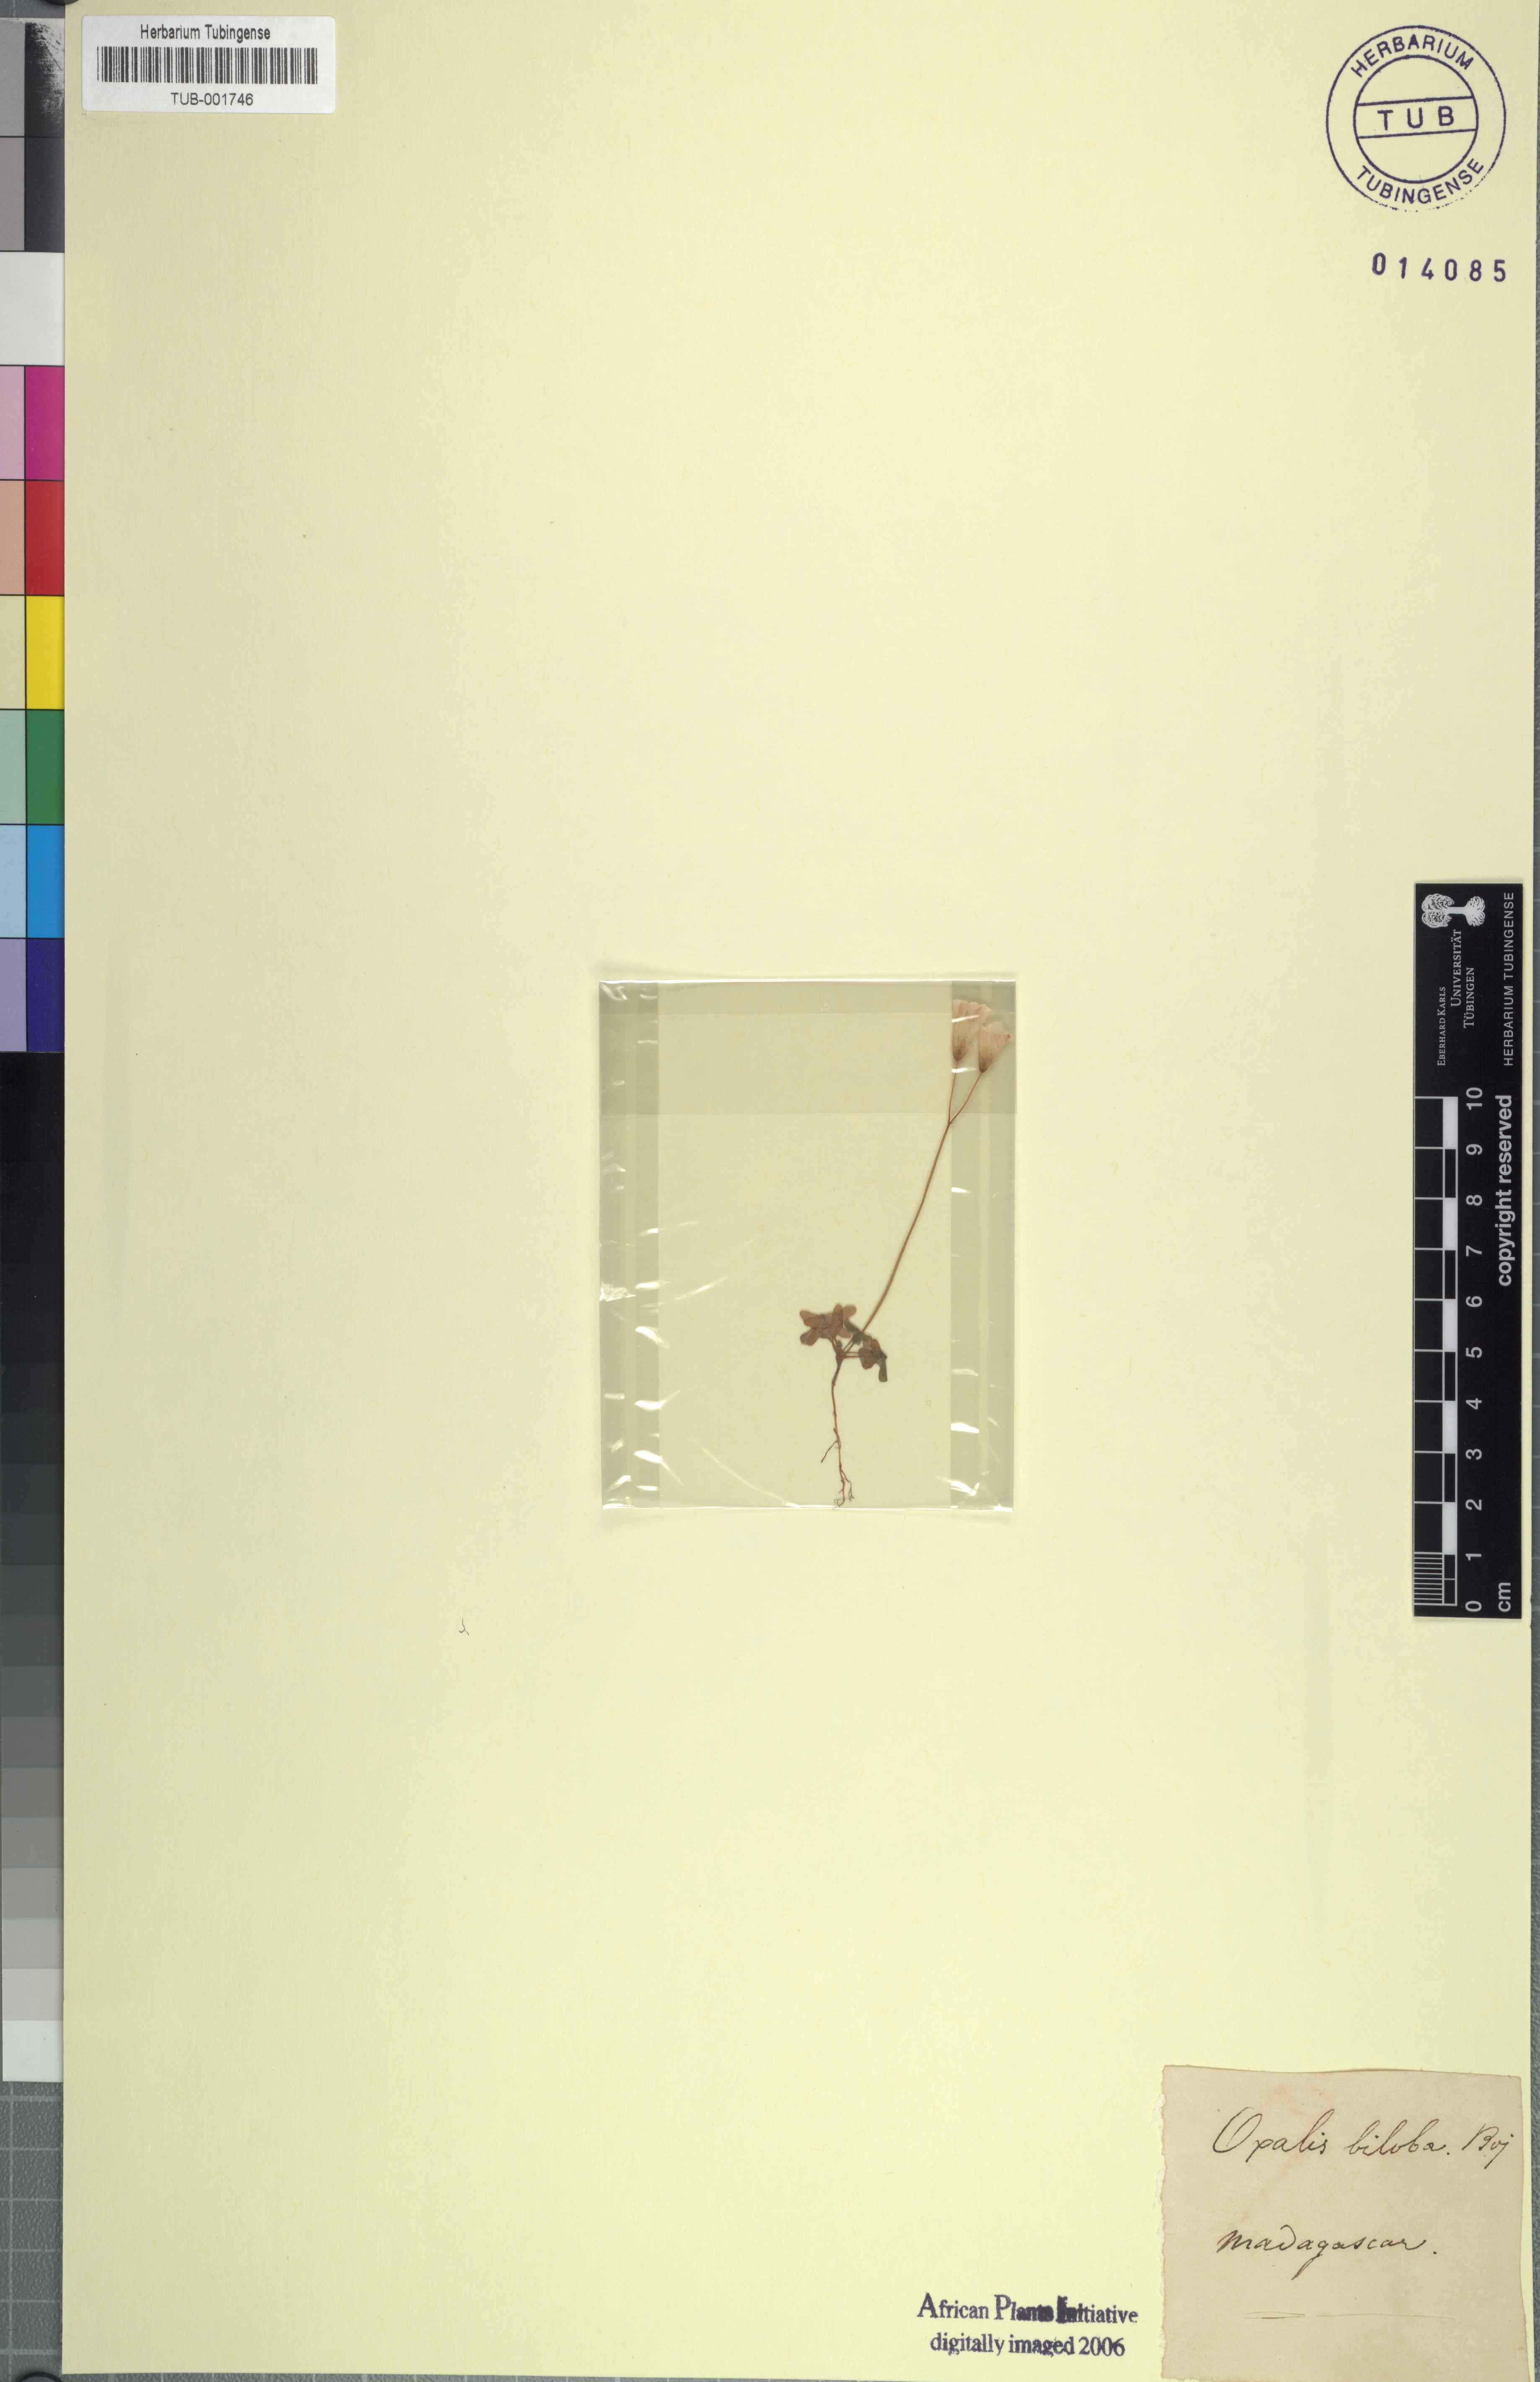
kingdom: Plantae
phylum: Tracheophyta
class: Magnoliopsida
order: Oxalidales
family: Oxalidaceae
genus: Oxalis
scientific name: Oxalis bipartita
